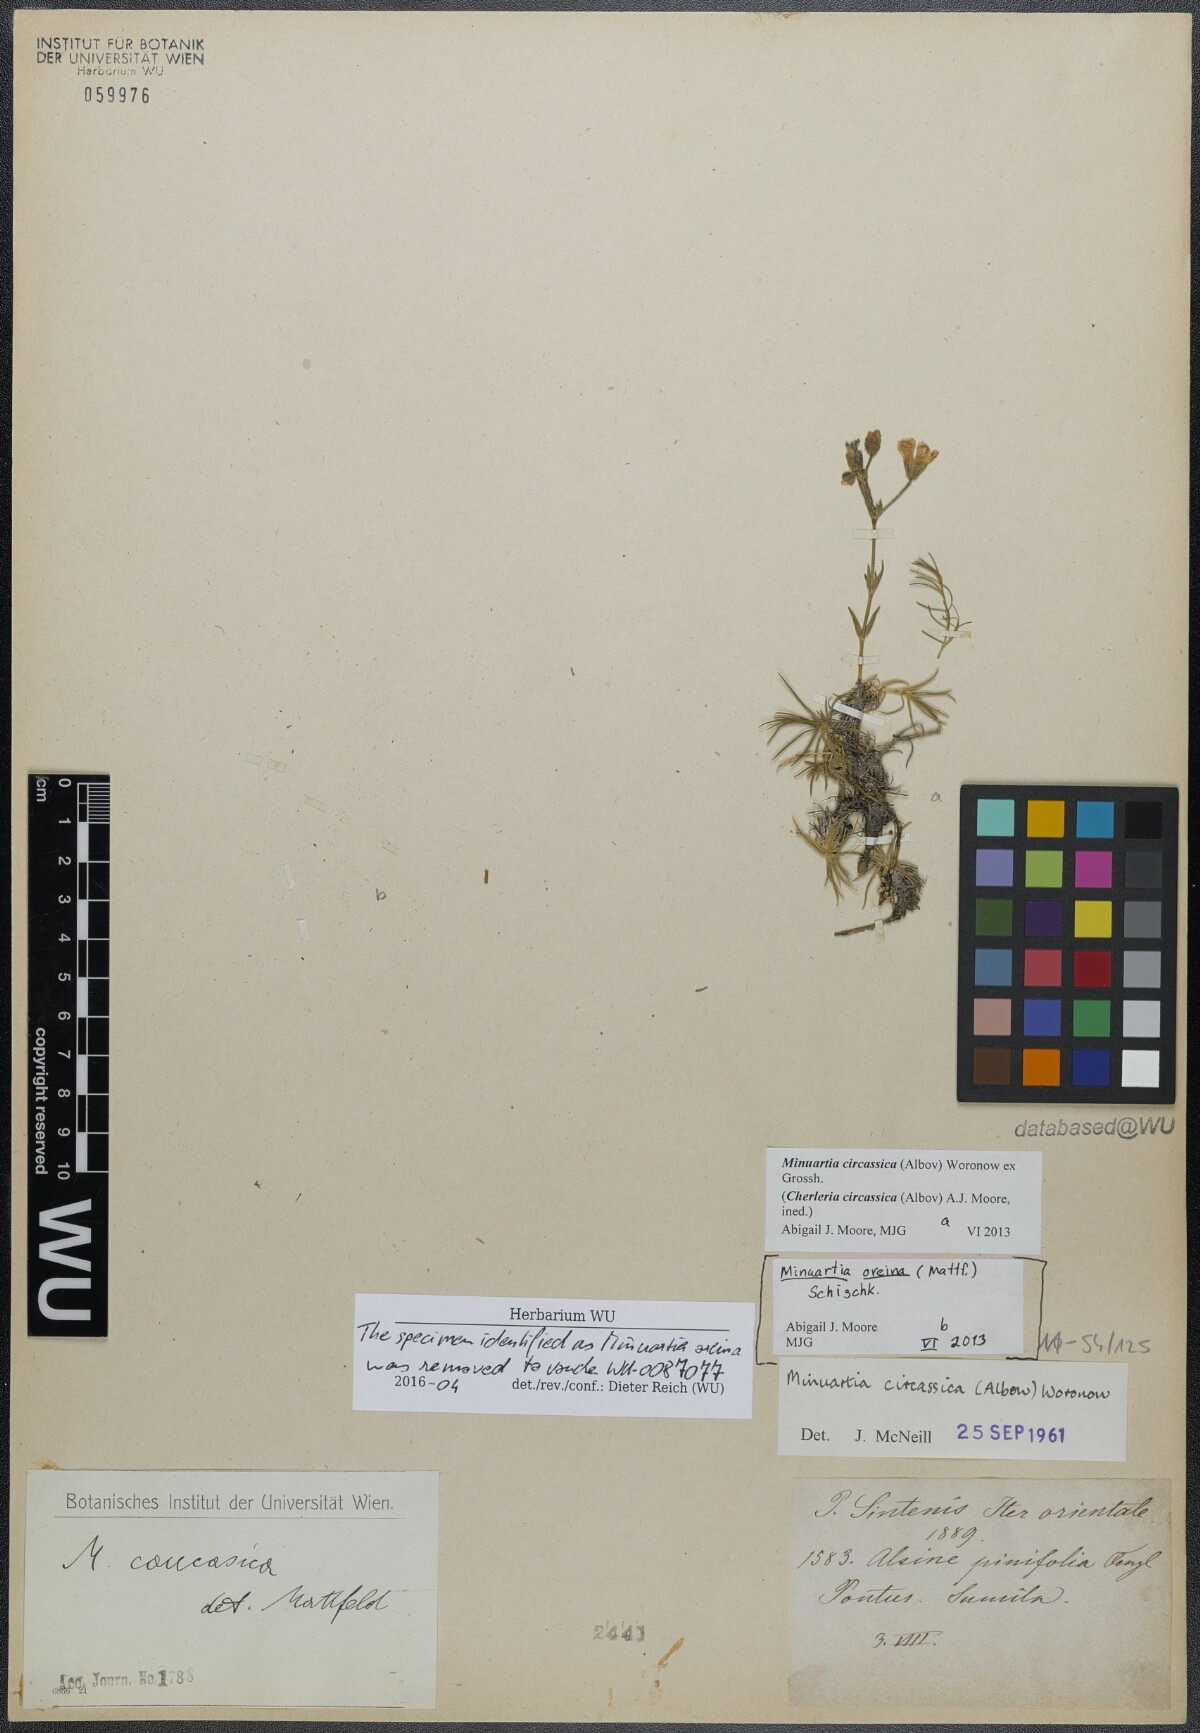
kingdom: Plantae
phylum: Tracheophyta
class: Magnoliopsida
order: Caryophyllales
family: Caryophyllaceae
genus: Cherleria
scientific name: Cherleria circassica
